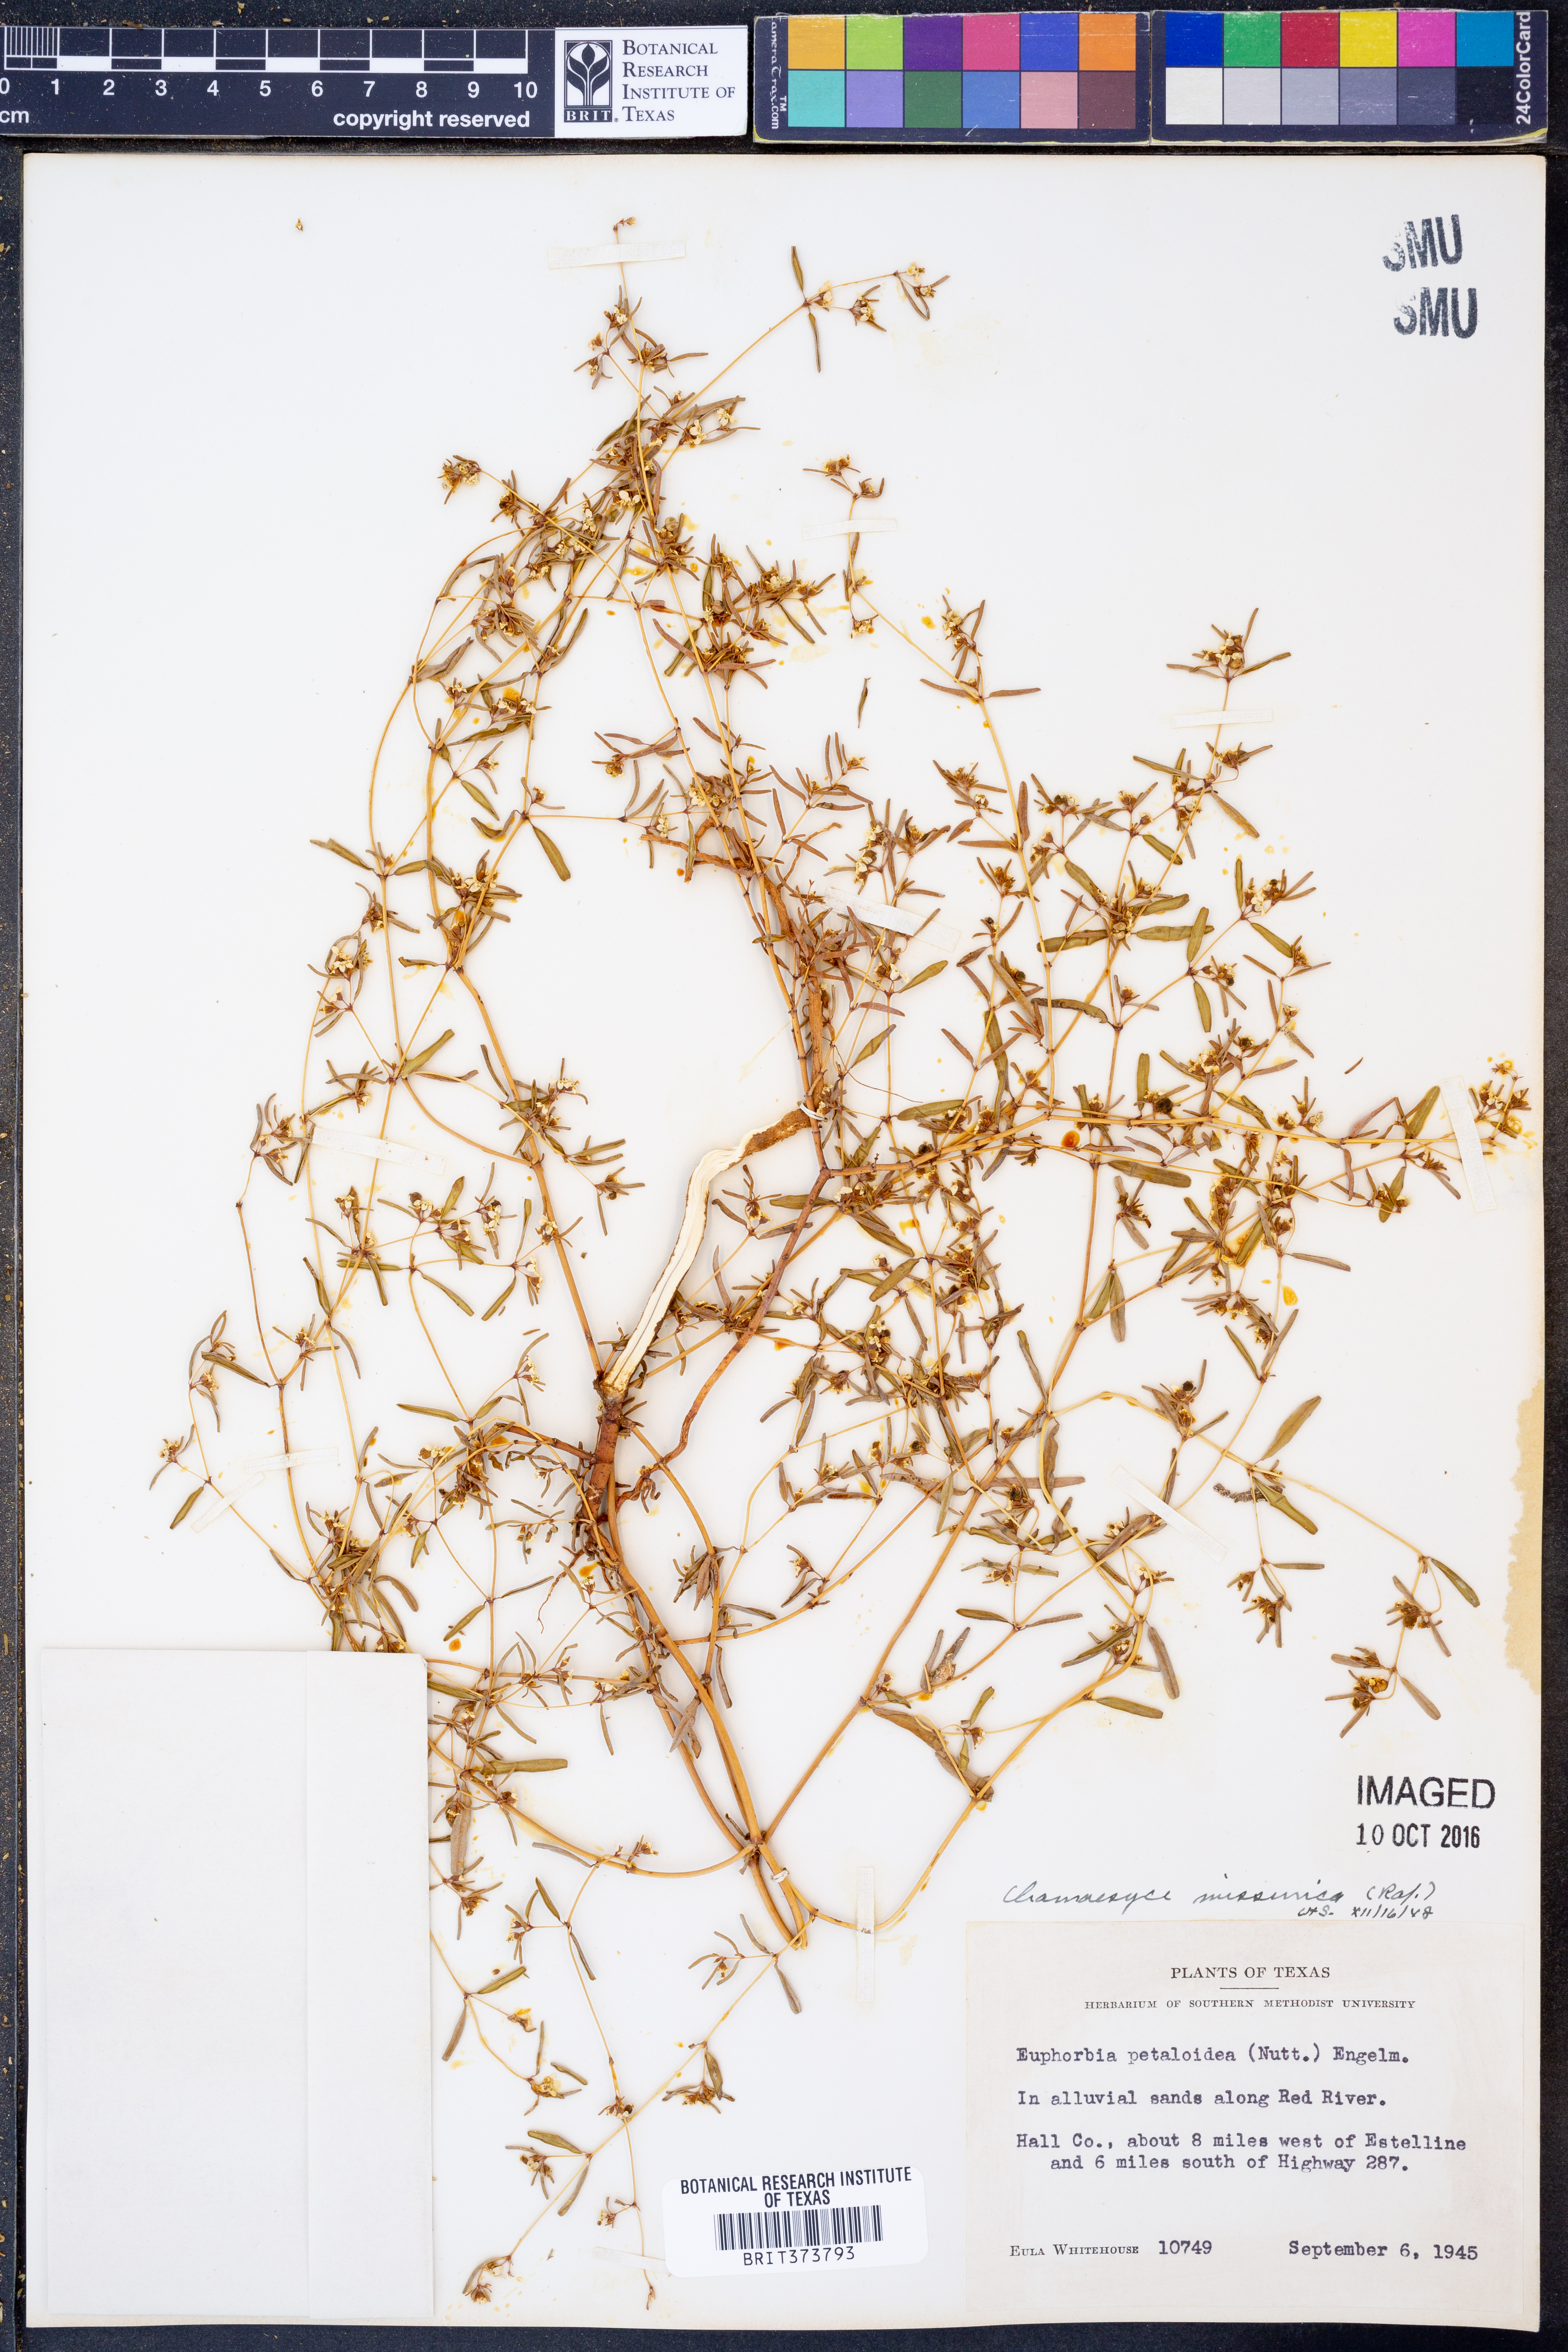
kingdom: Plantae
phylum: Tracheophyta
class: Magnoliopsida
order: Malpighiales
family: Euphorbiaceae
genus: Euphorbia
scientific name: Euphorbia missurica
